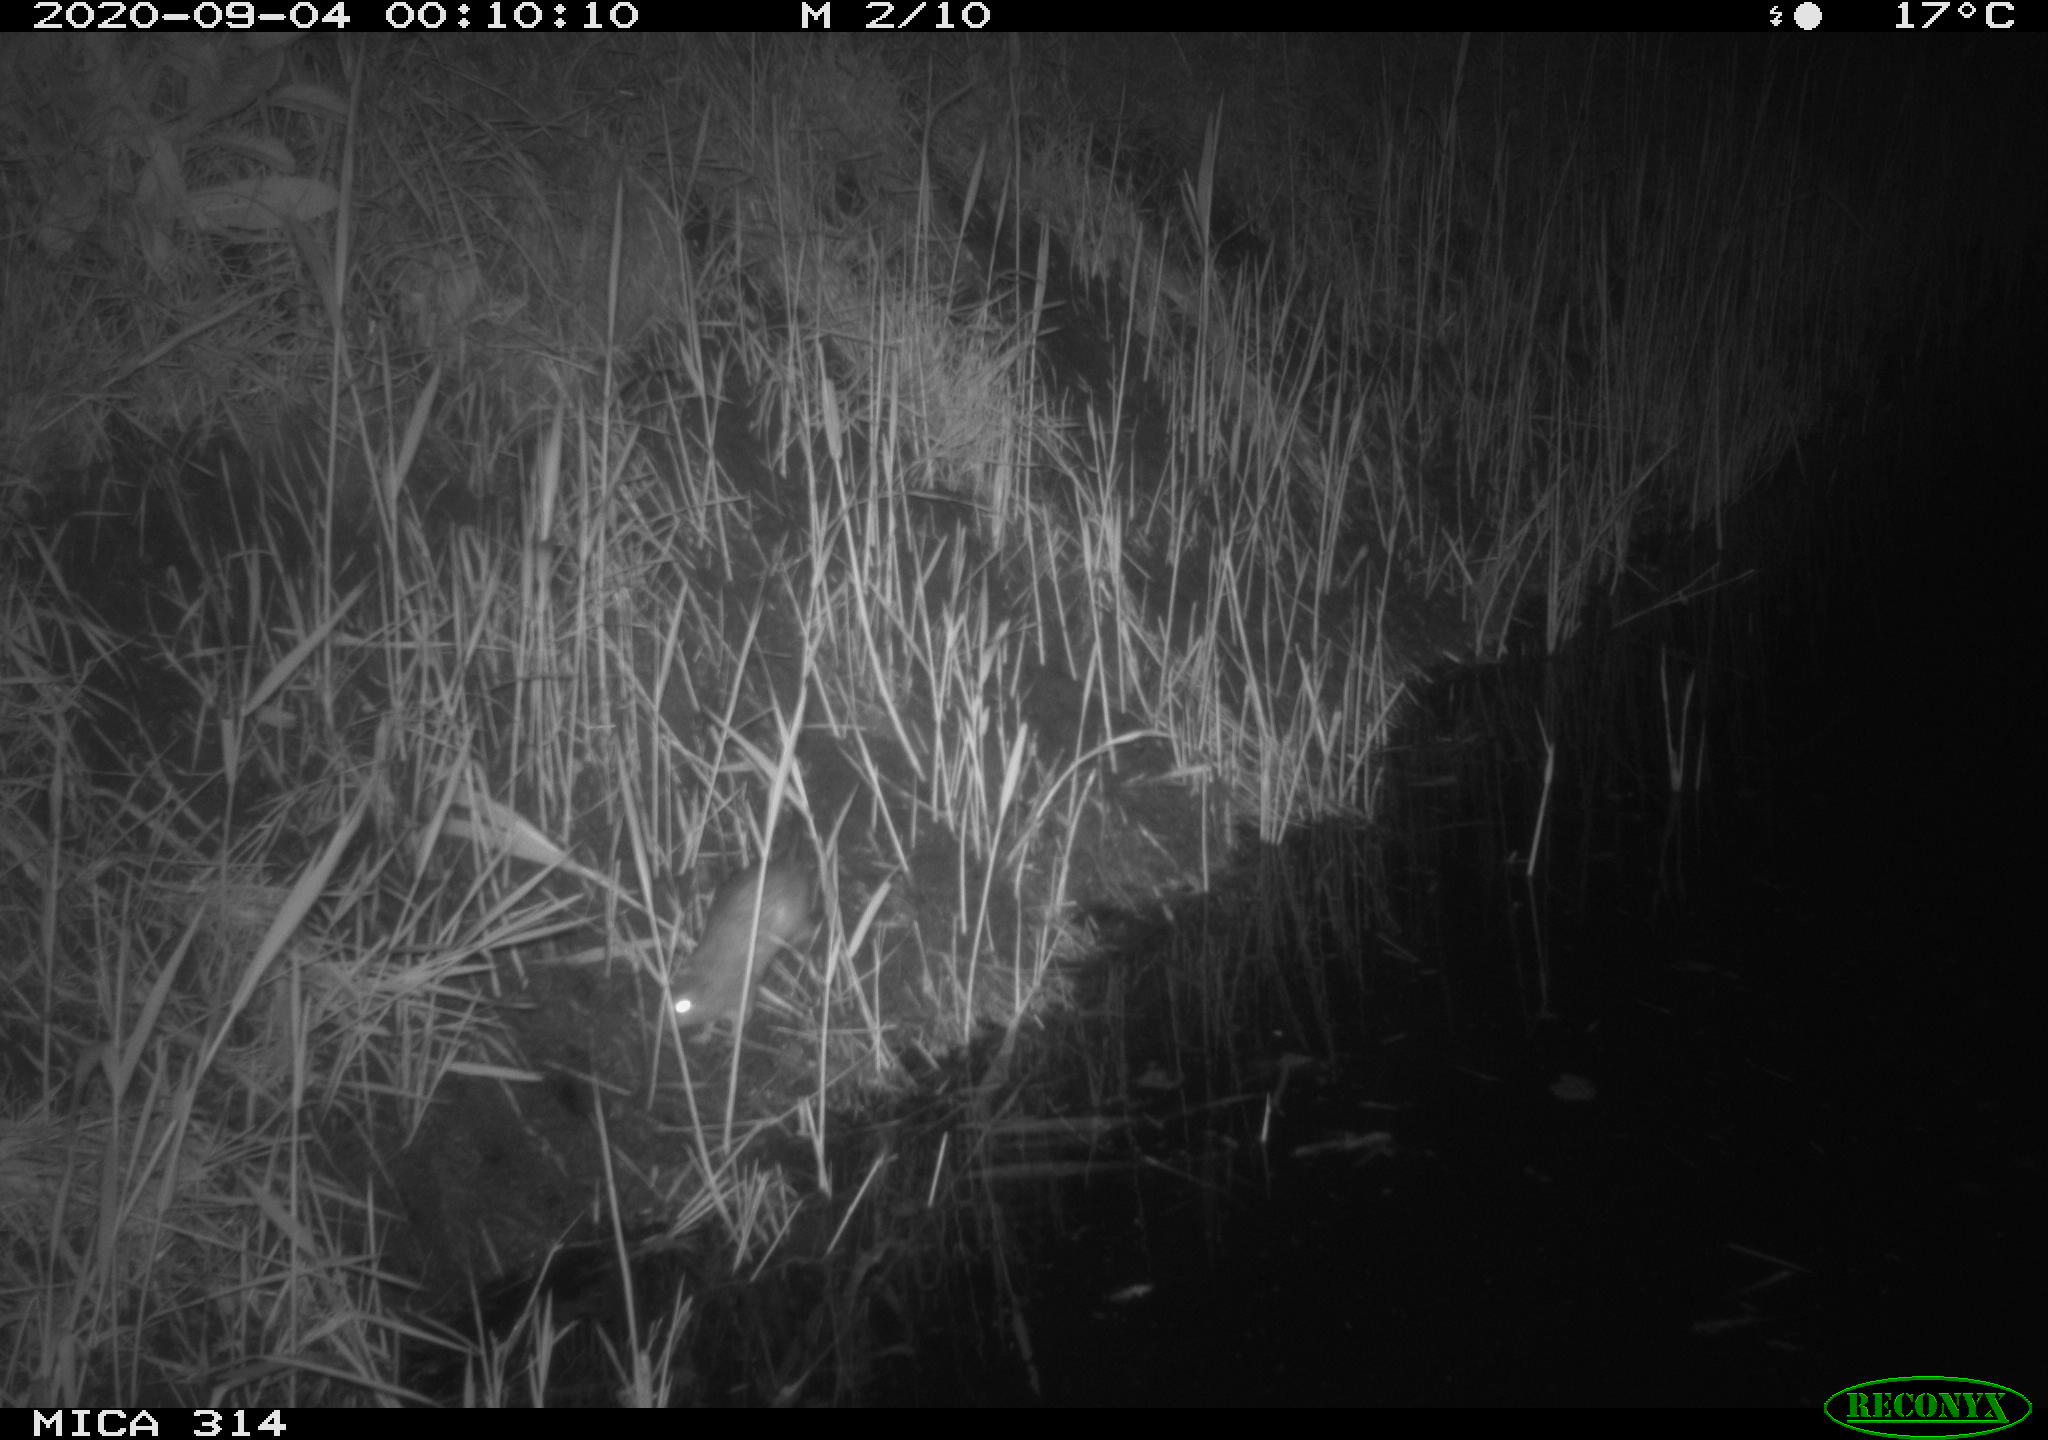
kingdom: Animalia
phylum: Chordata
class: Mammalia
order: Rodentia
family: Muridae
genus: Rattus
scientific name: Rattus norvegicus
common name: Brown rat
